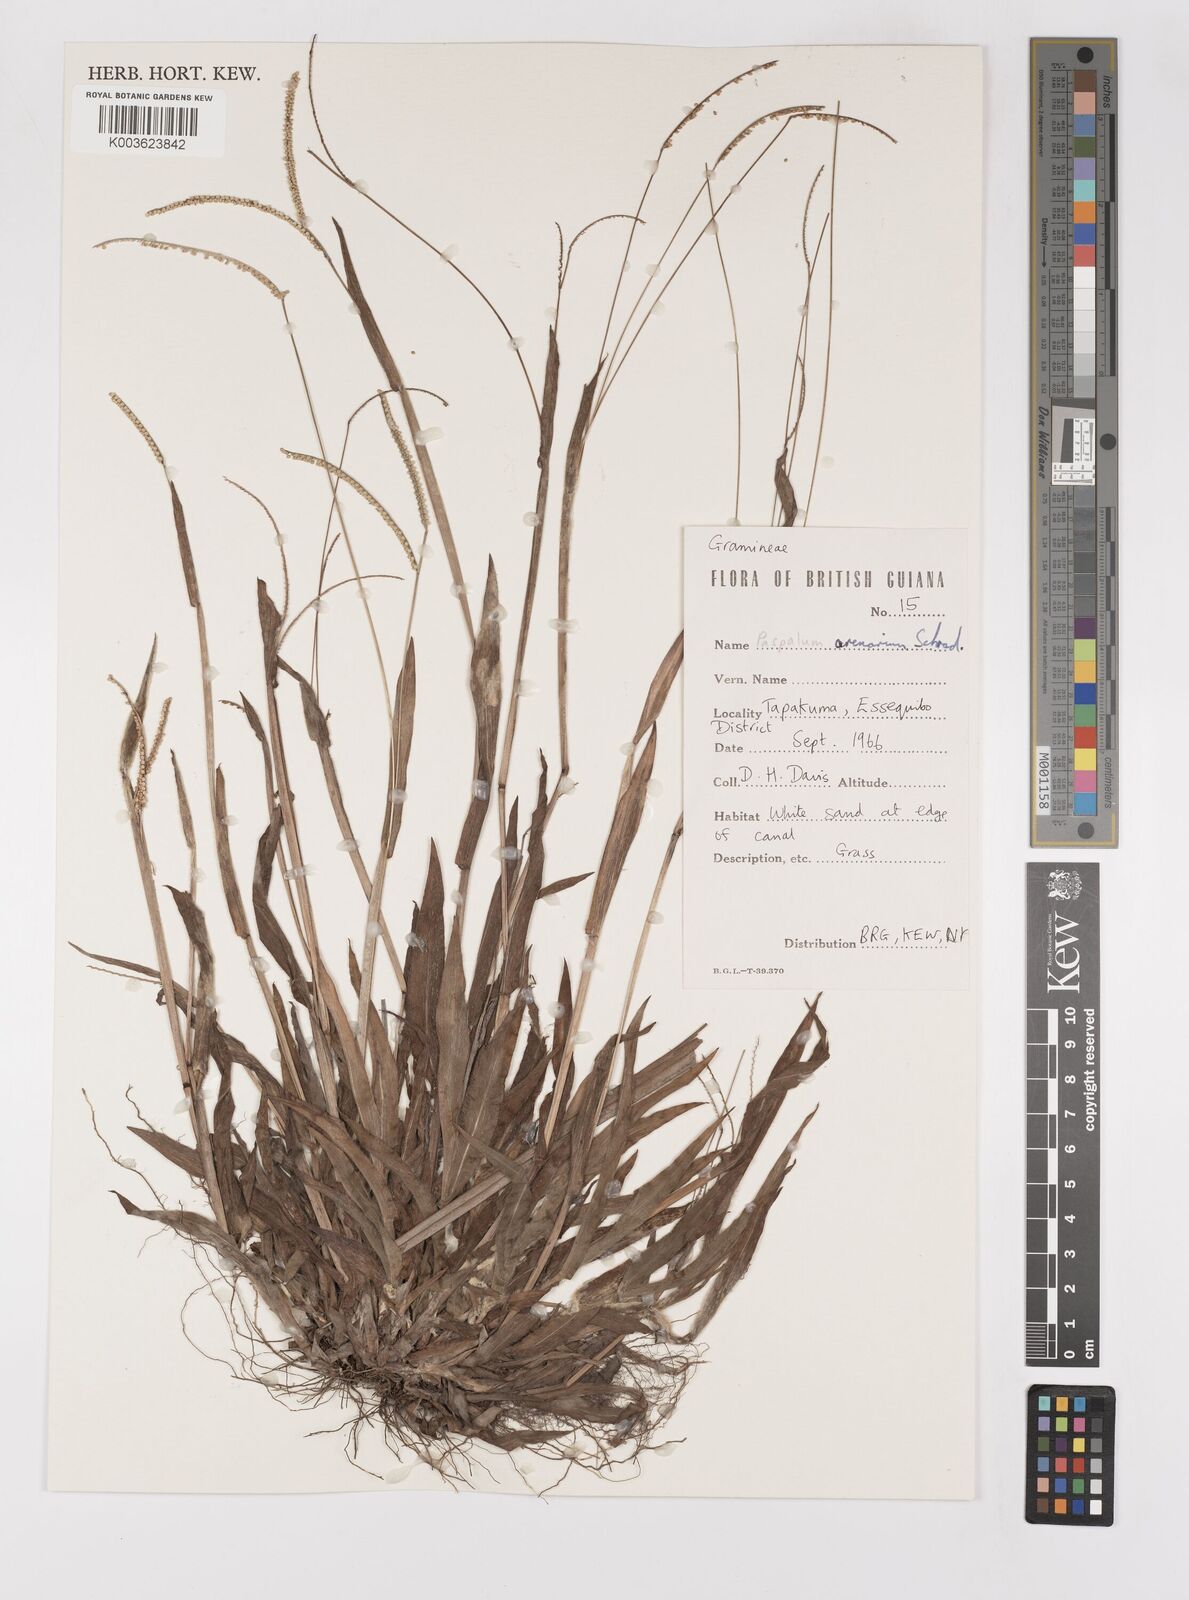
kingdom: Plantae
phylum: Tracheophyta
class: Liliopsida
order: Poales
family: Poaceae
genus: Paspalum
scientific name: Paspalum arenarium
